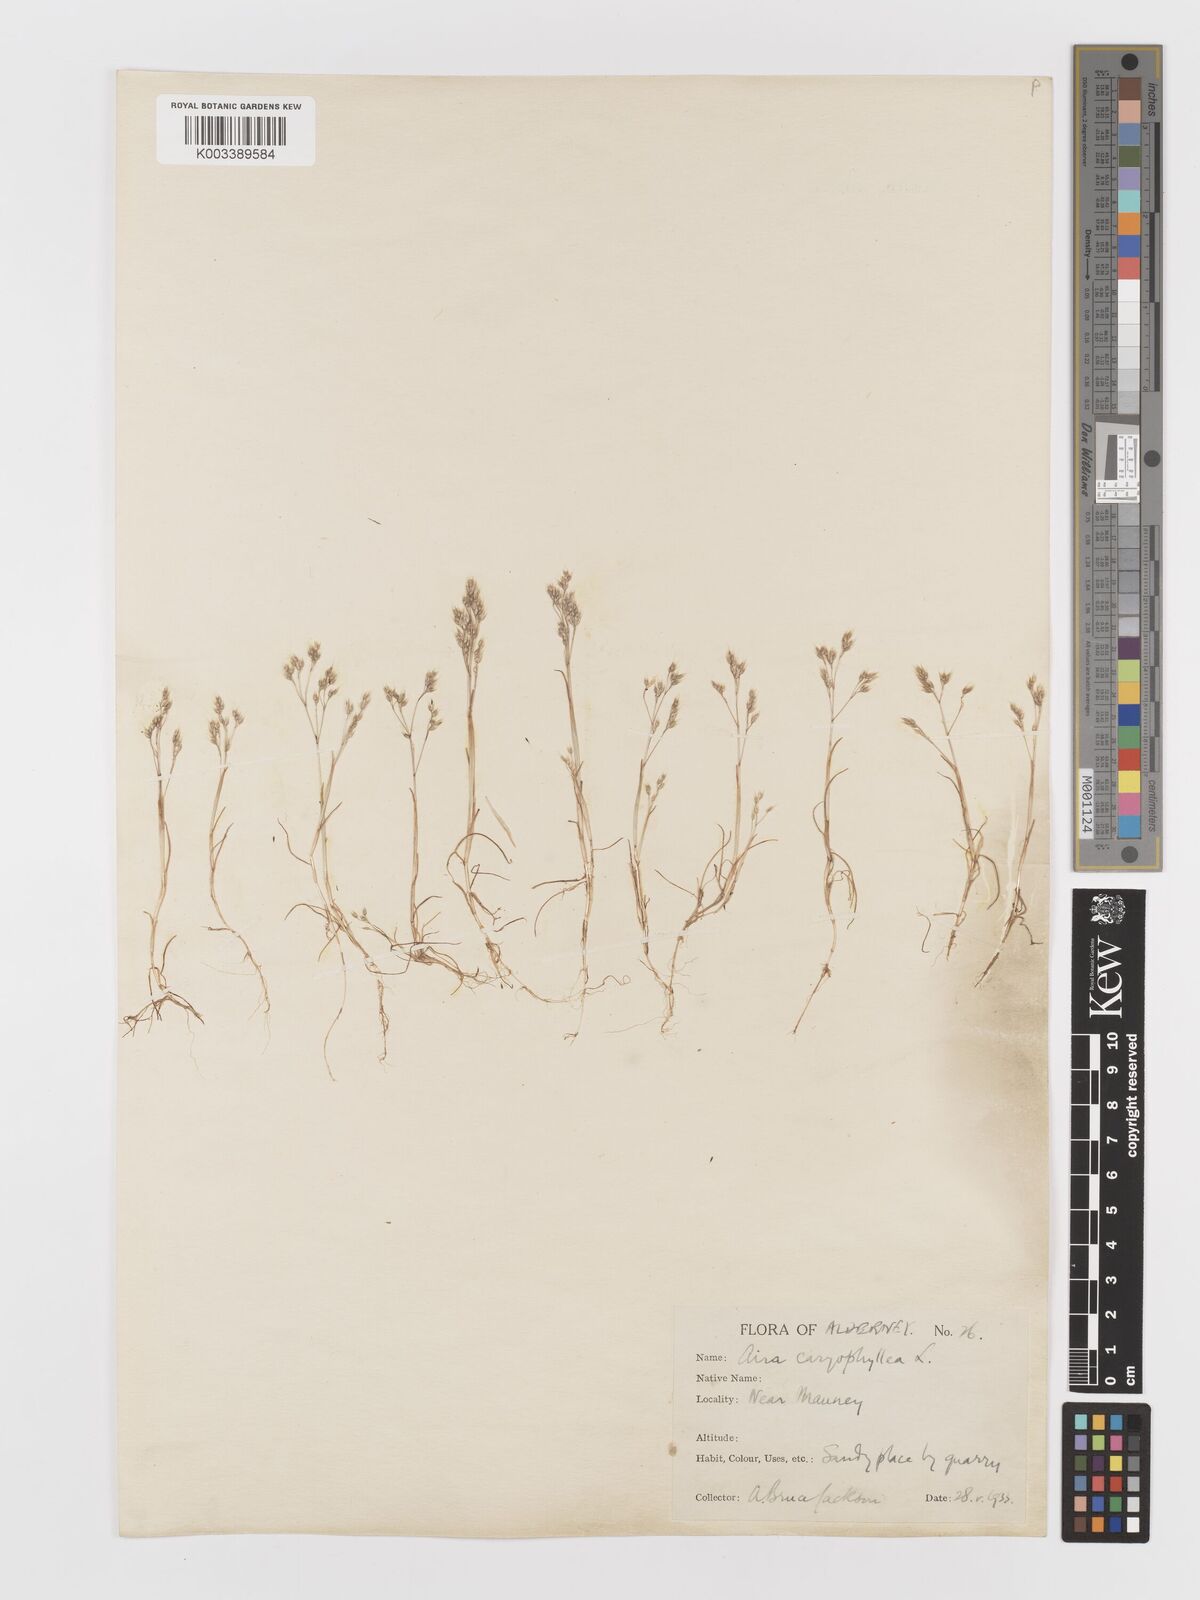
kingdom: Plantae
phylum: Tracheophyta
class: Liliopsida
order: Poales
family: Poaceae
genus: Aira
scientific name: Aira caryophyllea
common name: Silver hairgrass
